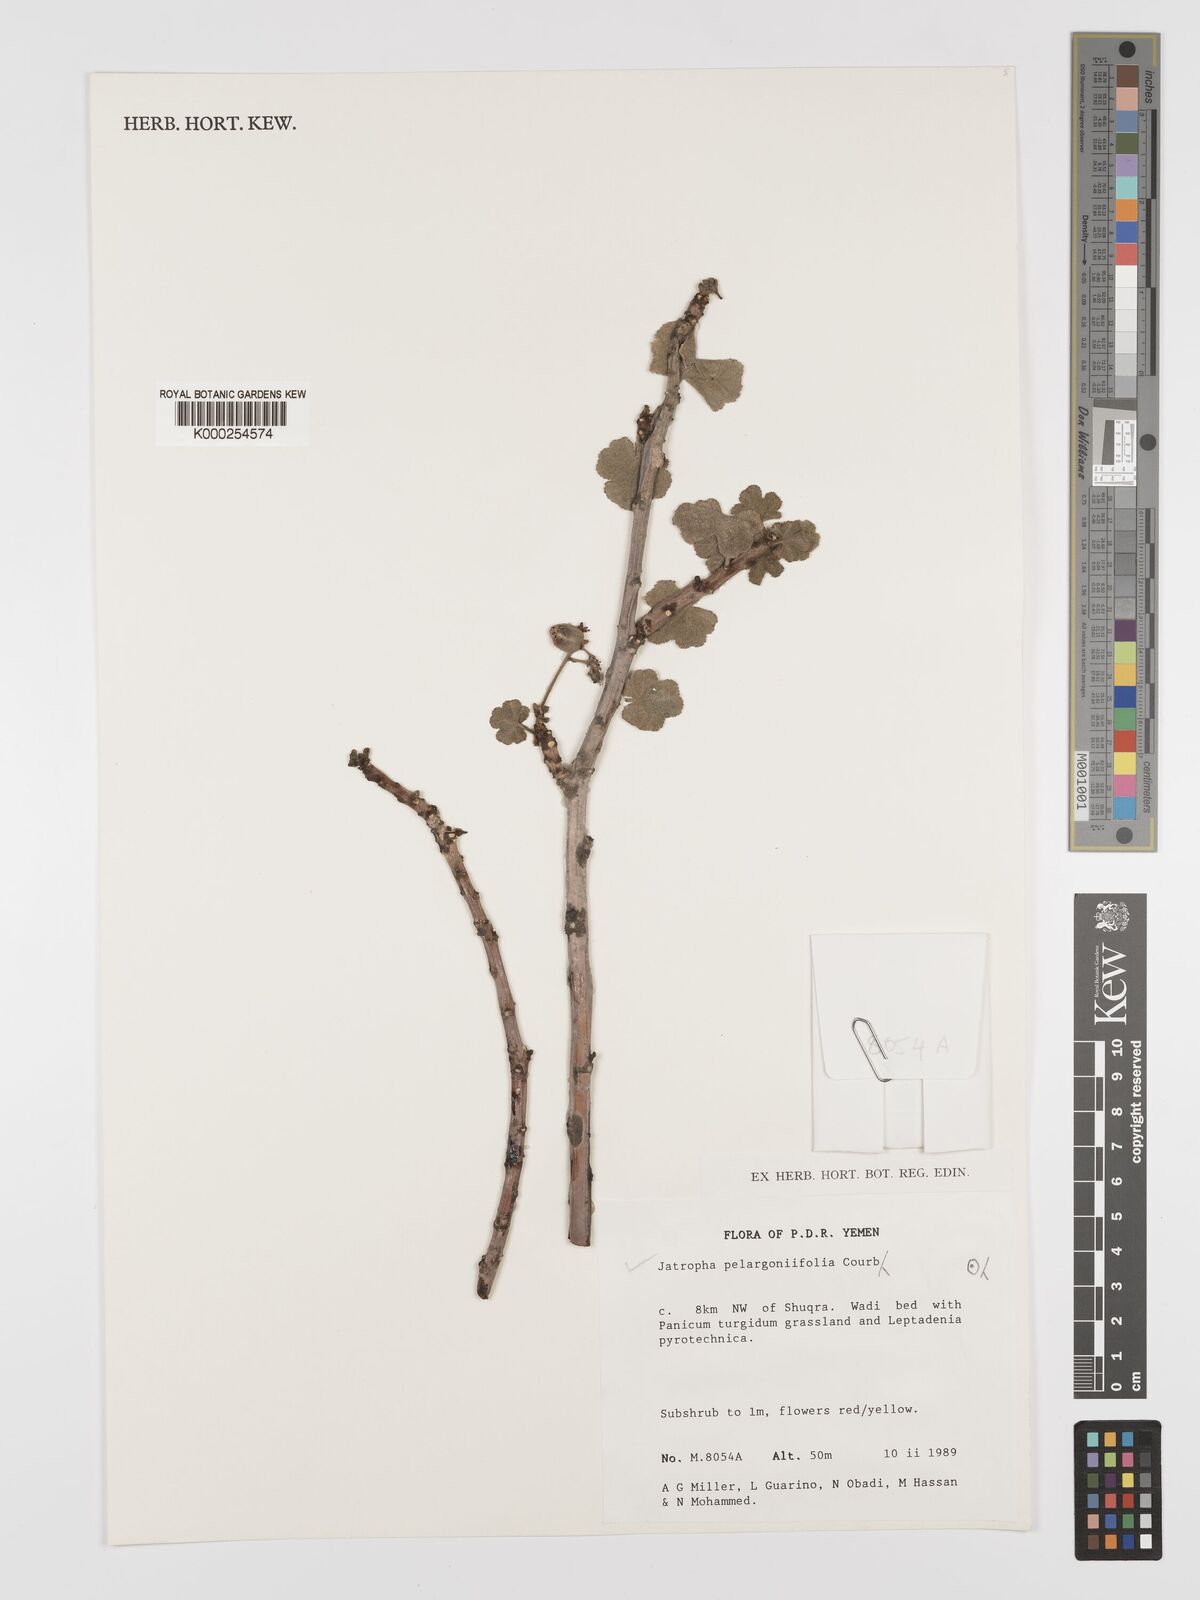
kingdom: Plantae
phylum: Tracheophyta
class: Magnoliopsida
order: Malpighiales
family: Euphorbiaceae
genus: Jatropha
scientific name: Jatropha pelargoniifolia
